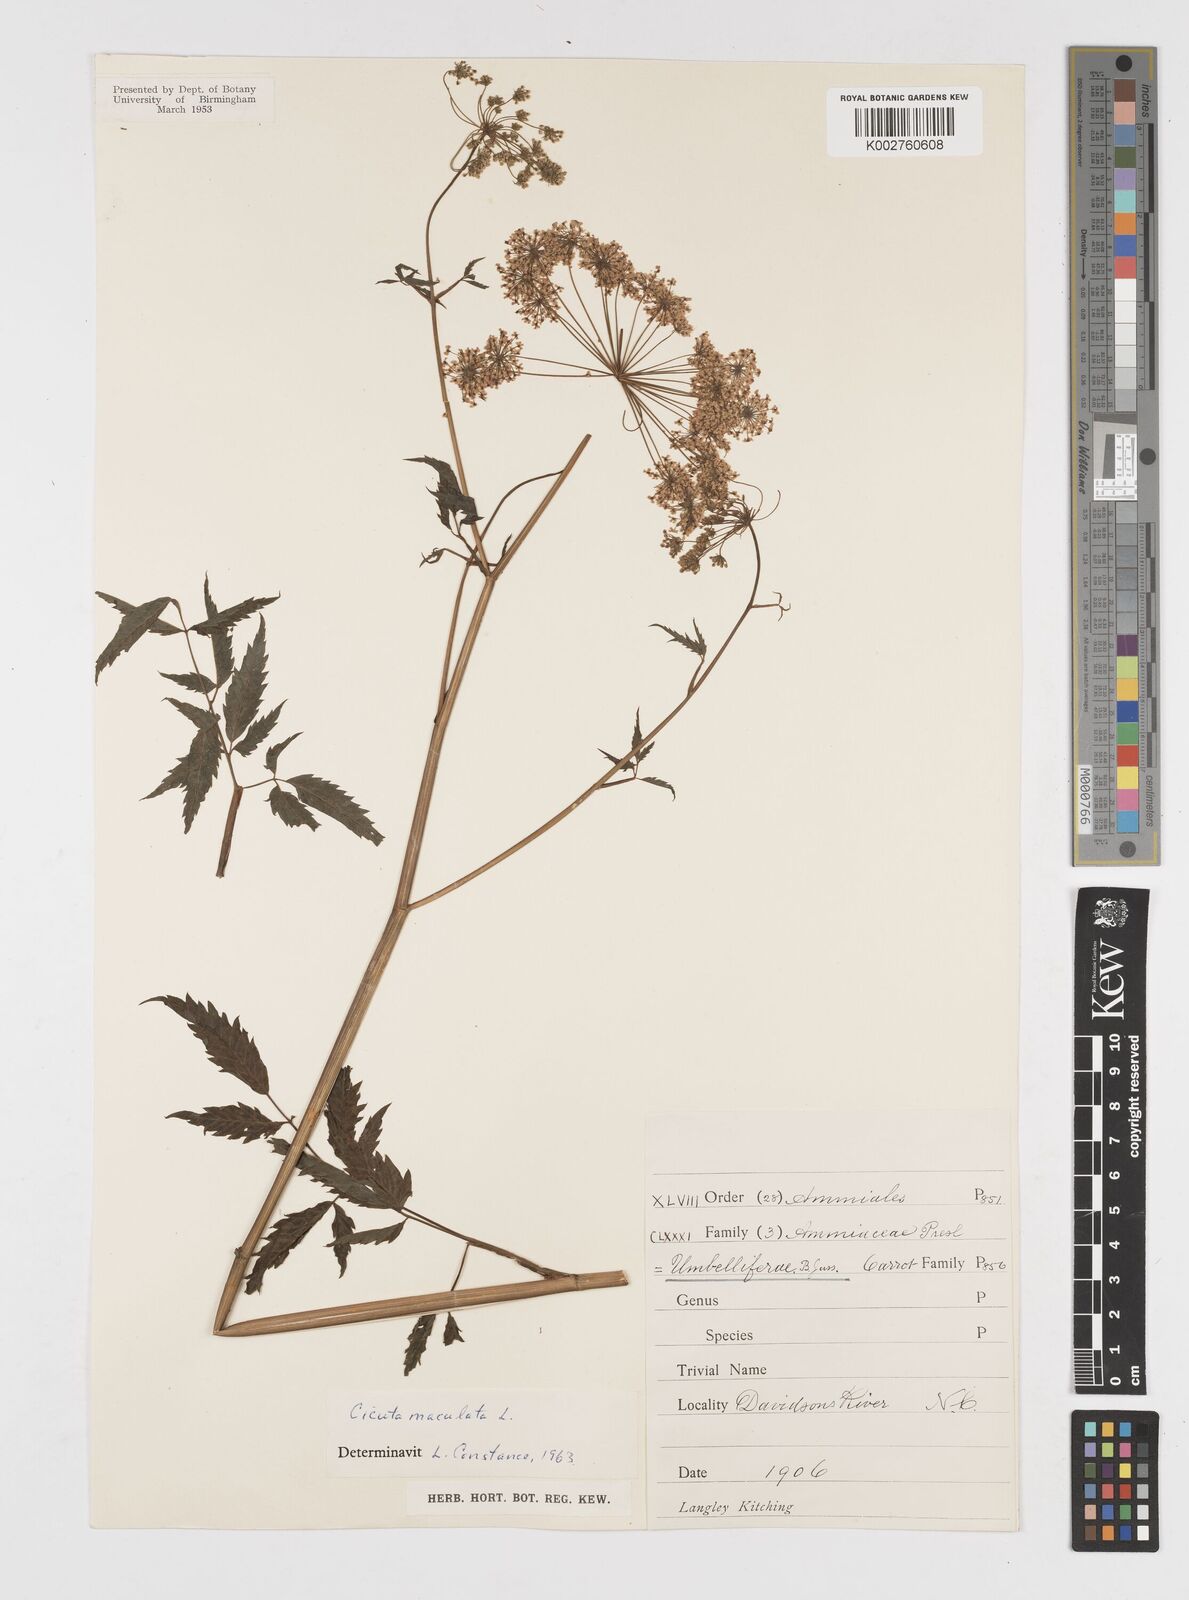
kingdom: Plantae
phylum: Tracheophyta
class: Magnoliopsida
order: Apiales
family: Apiaceae
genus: Cicuta
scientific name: Cicuta maculata
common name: Spotted cowbane
